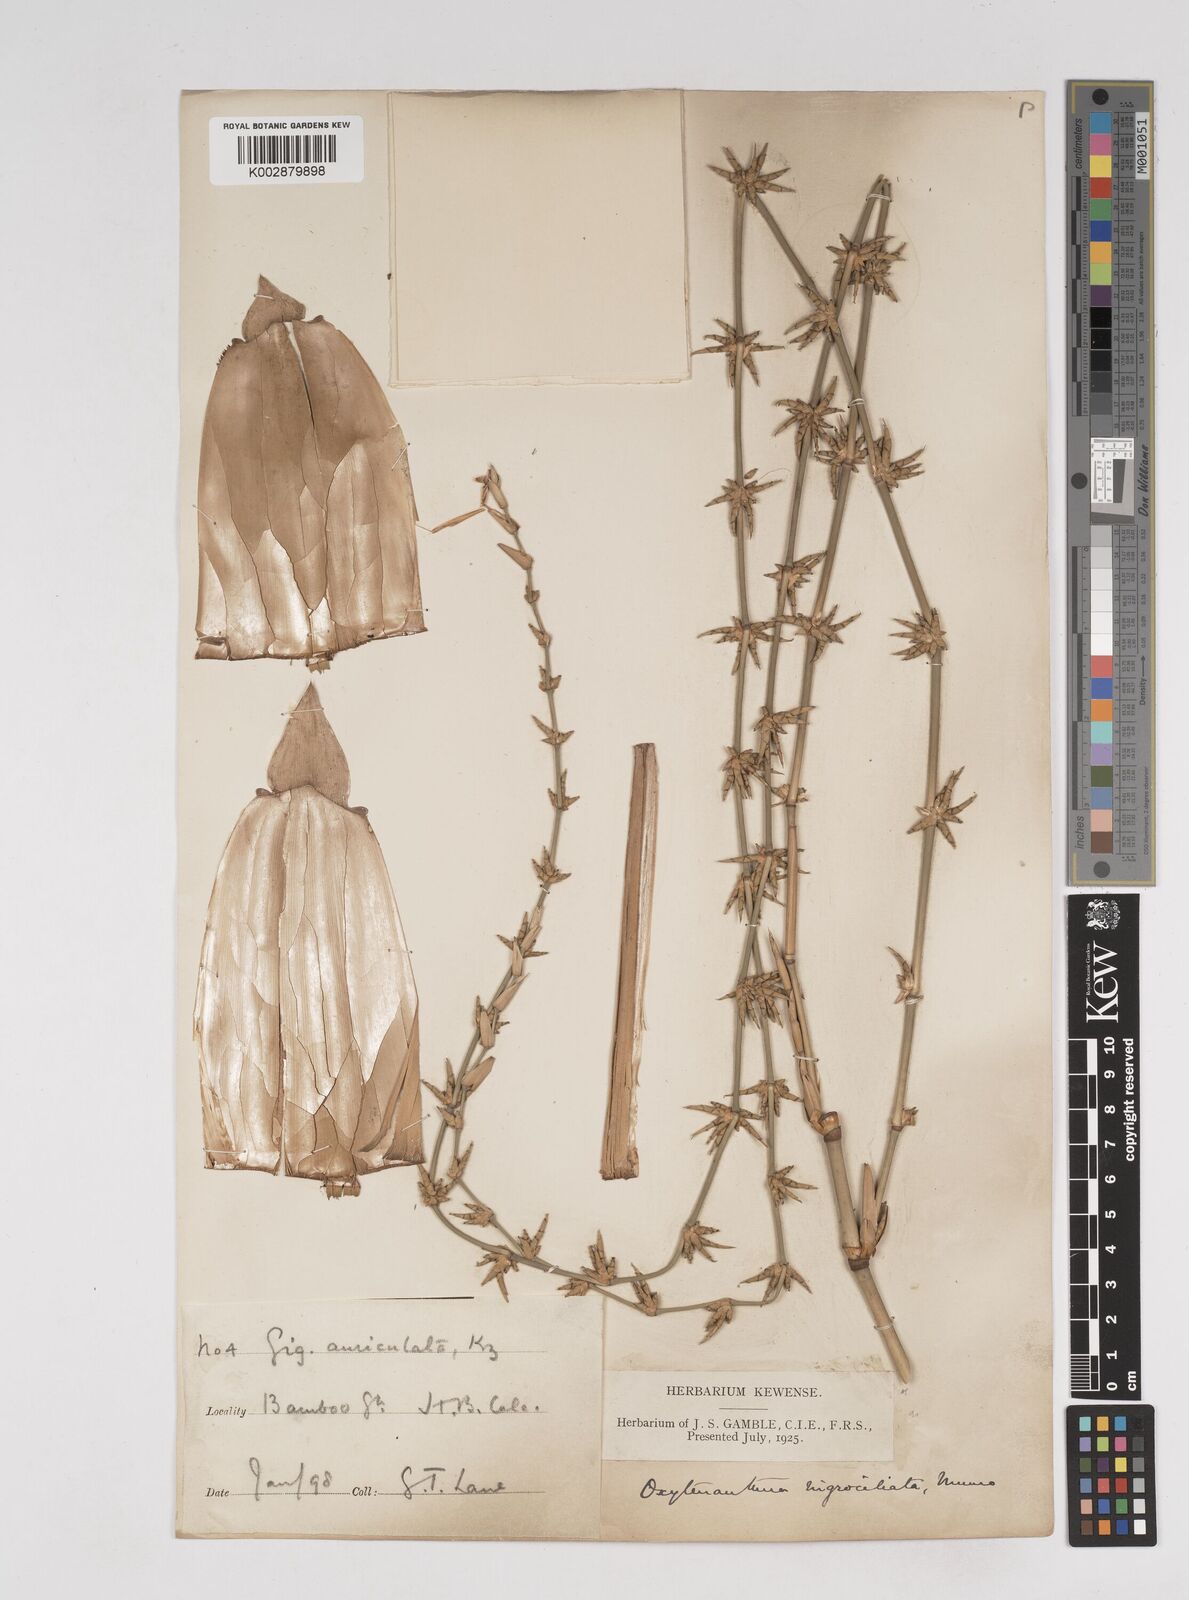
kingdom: Plantae
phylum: Tracheophyta
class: Liliopsida
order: Poales
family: Poaceae
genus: Gigantochloa
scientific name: Gigantochloa nigrociliata
